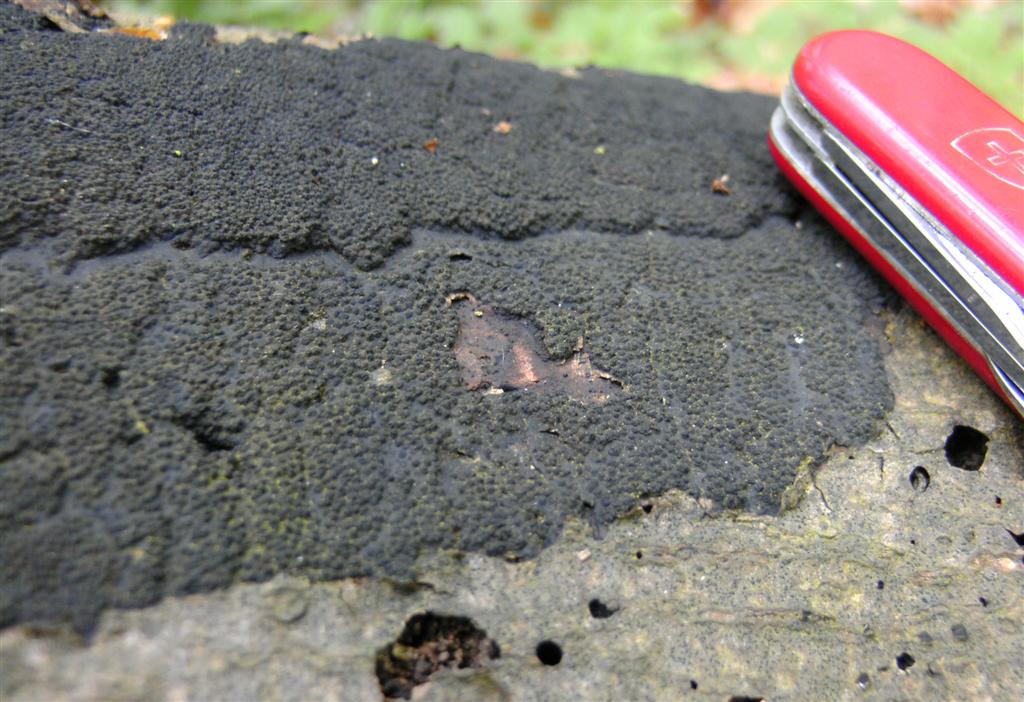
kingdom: Fungi
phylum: Ascomycota
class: Sordariomycetes
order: Xylariales
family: Diatrypaceae
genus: Eutypa
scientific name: Eutypa spinosa
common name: grov kulskorpe
